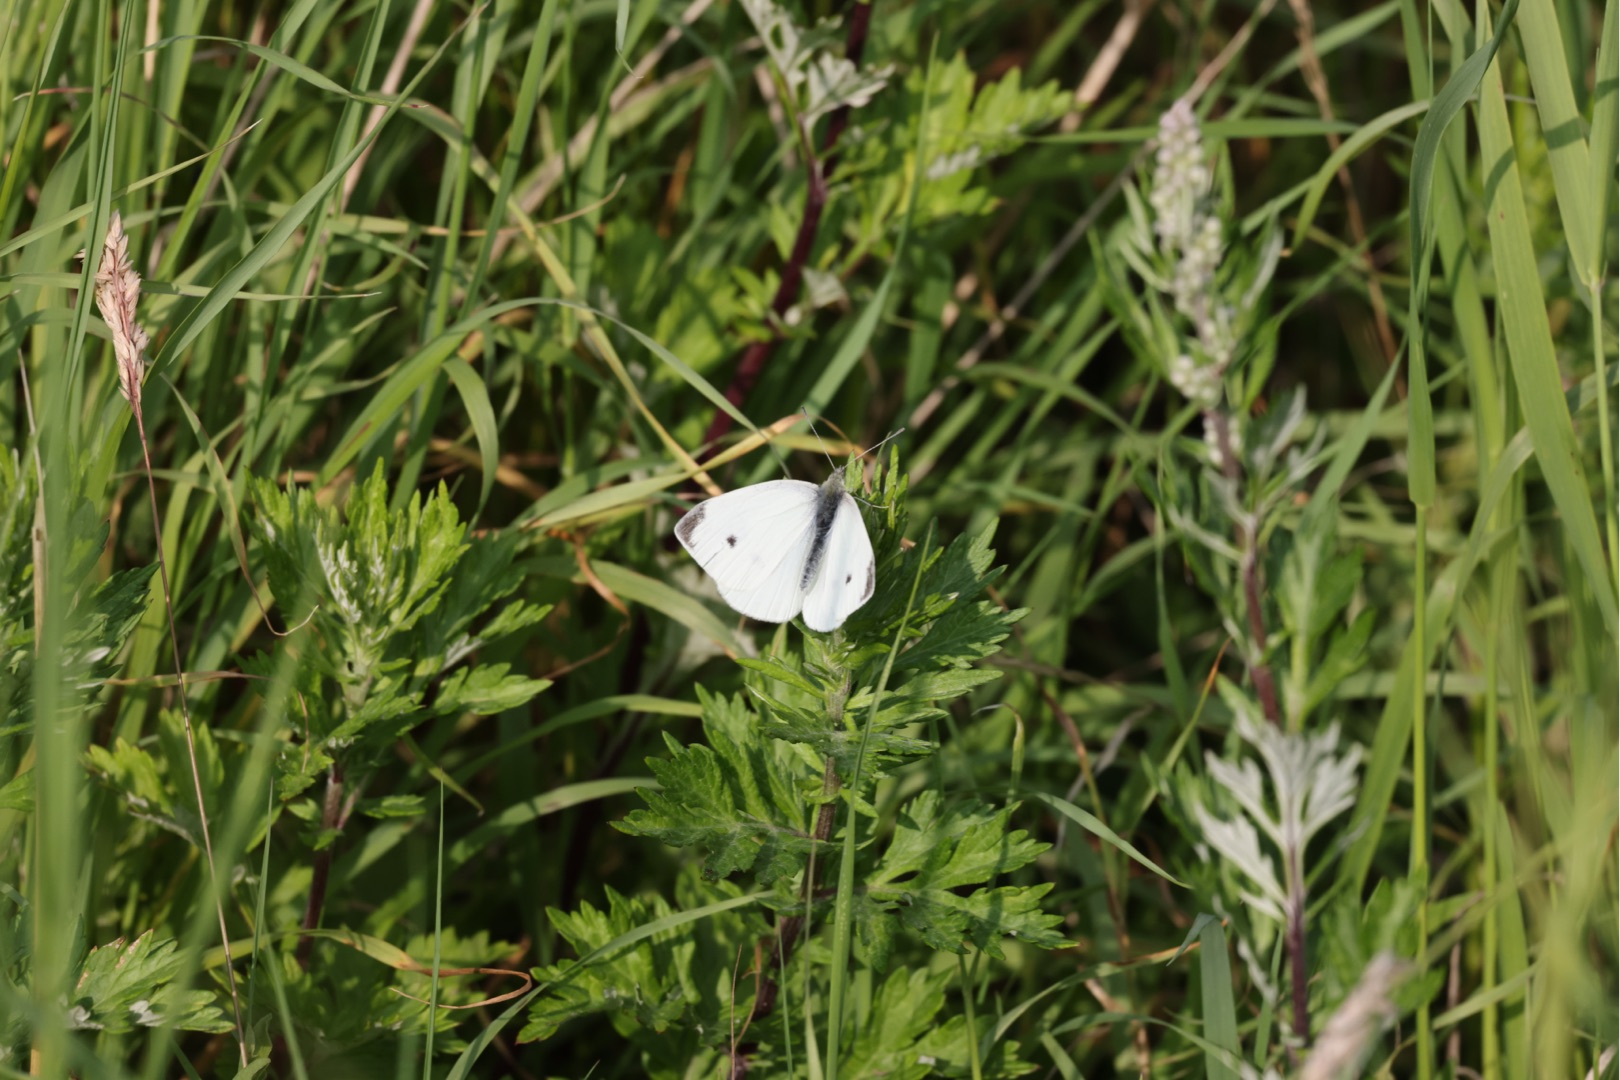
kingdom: Animalia
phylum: Arthropoda
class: Insecta
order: Lepidoptera
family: Pieridae
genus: Pieris
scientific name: Pieris rapae
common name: Lille kålsommerfugl
